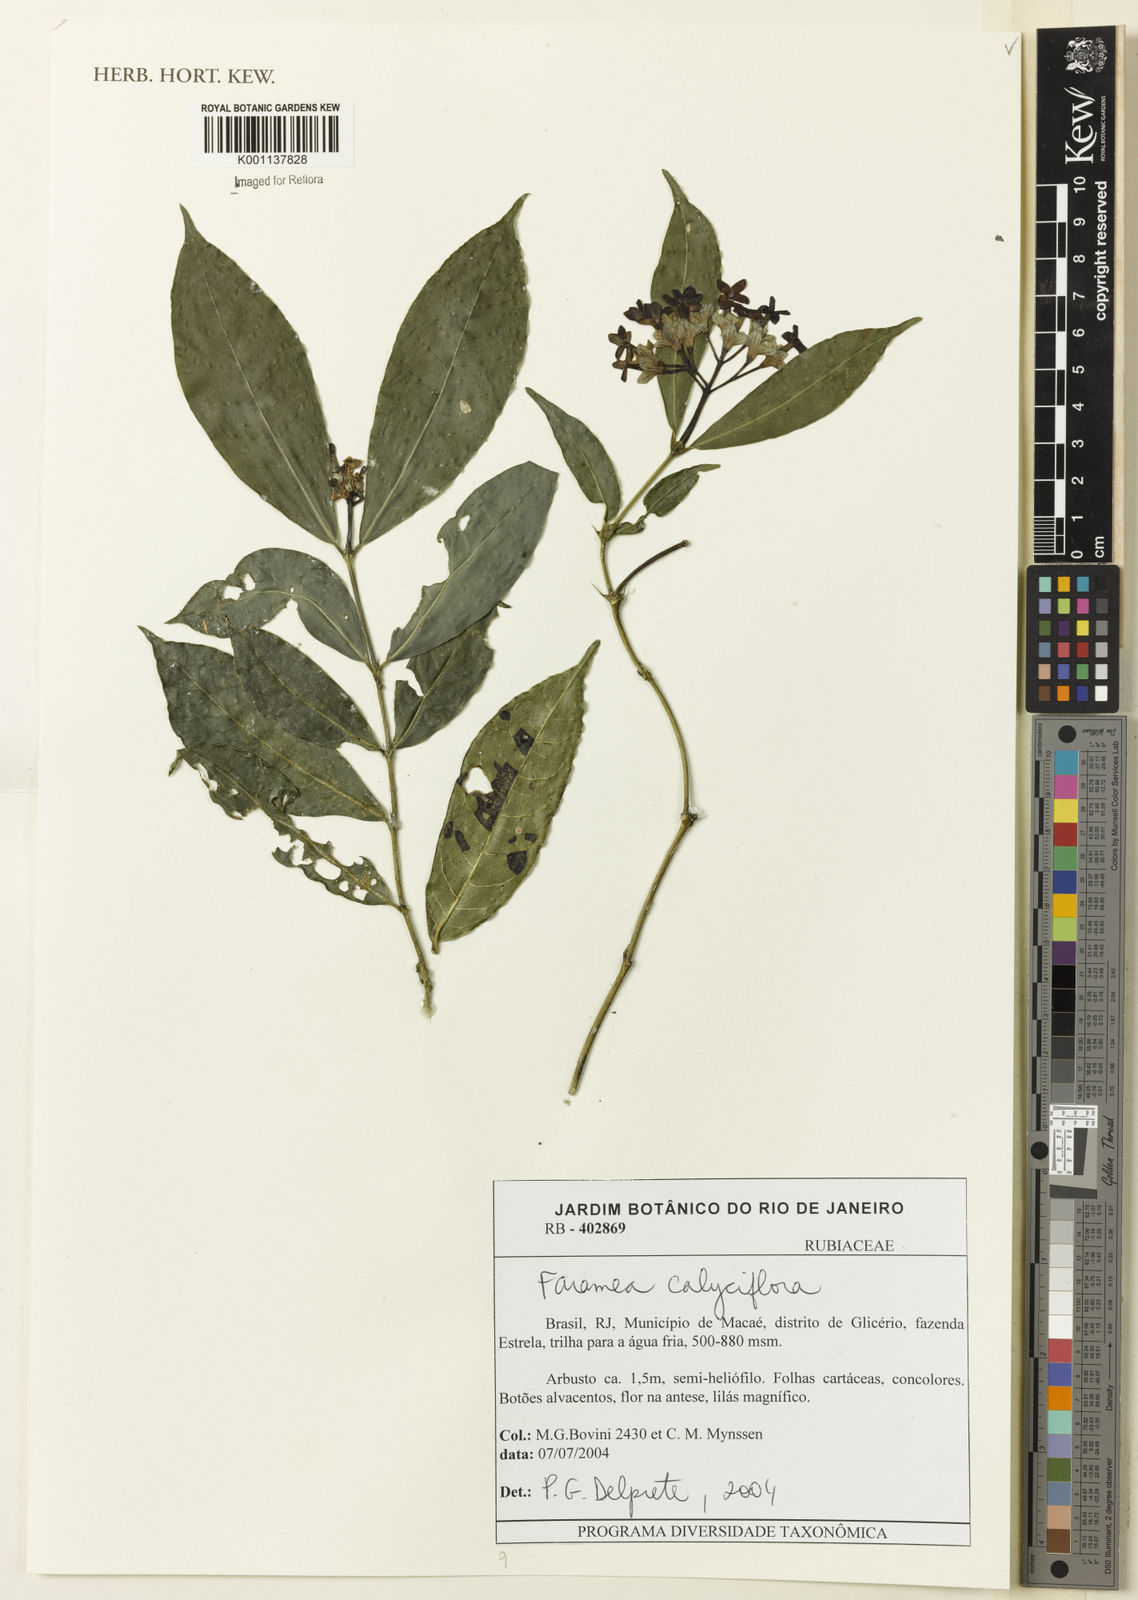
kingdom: Plantae
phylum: Tracheophyta
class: Magnoliopsida
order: Gentianales
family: Rubiaceae
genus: Faramea
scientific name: Faramea calyciflora
